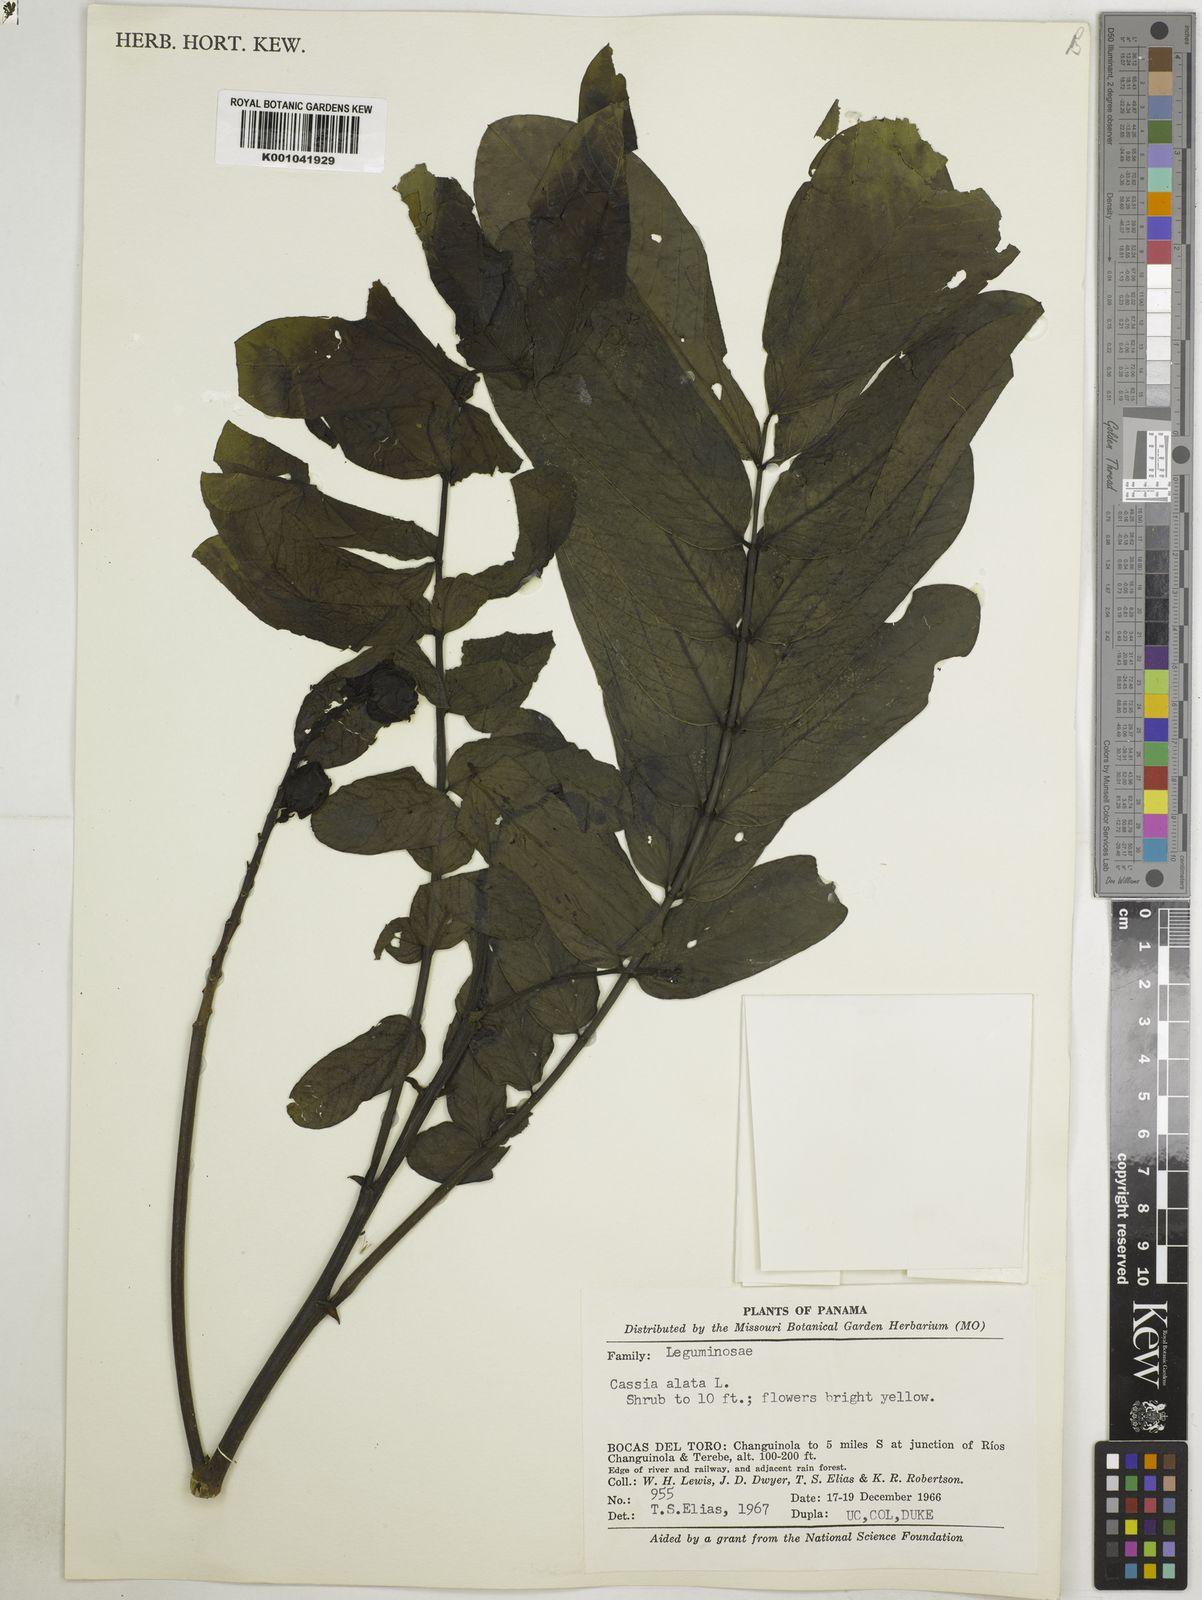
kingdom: Plantae
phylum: Tracheophyta
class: Magnoliopsida
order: Fabales
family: Fabaceae
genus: Senna
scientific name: Senna alata
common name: Emperor's candlesticks
